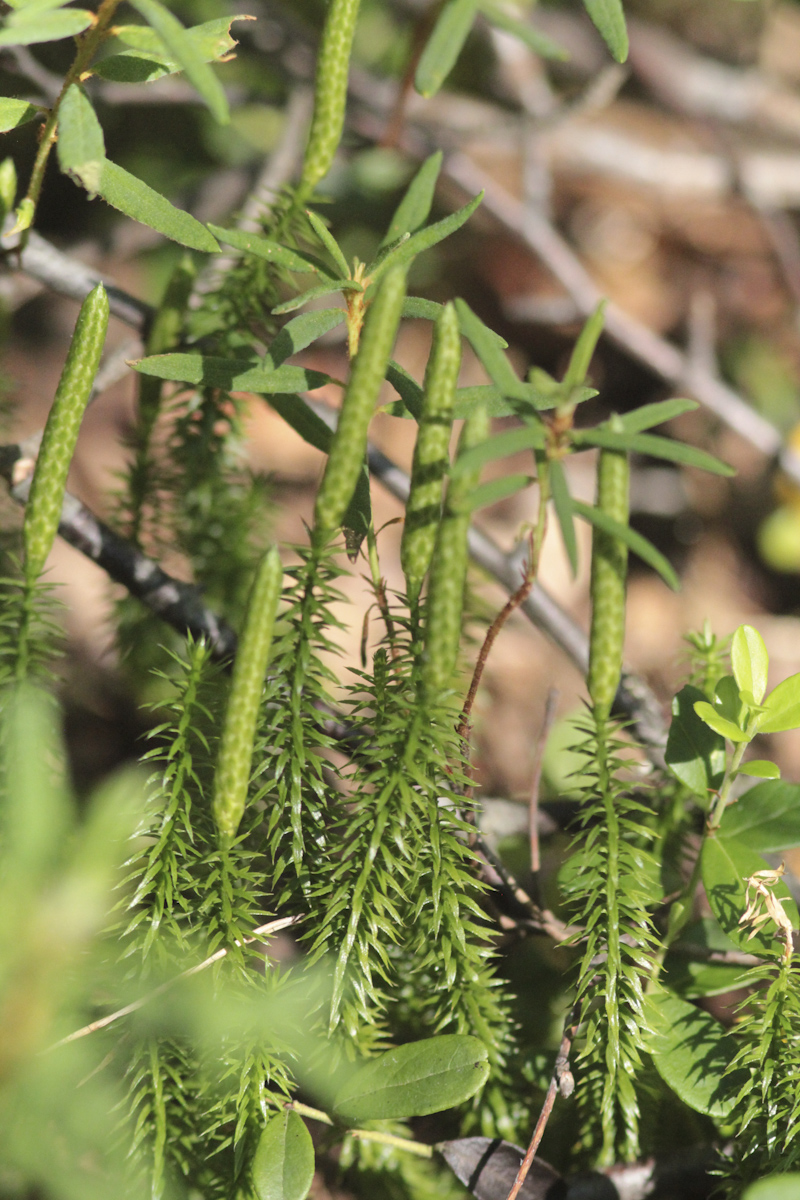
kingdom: Plantae
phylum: Tracheophyta
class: Lycopodiopsida
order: Lycopodiales
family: Lycopodiaceae
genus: Spinulum
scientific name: Spinulum annotinum
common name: Interrupted club-moss
